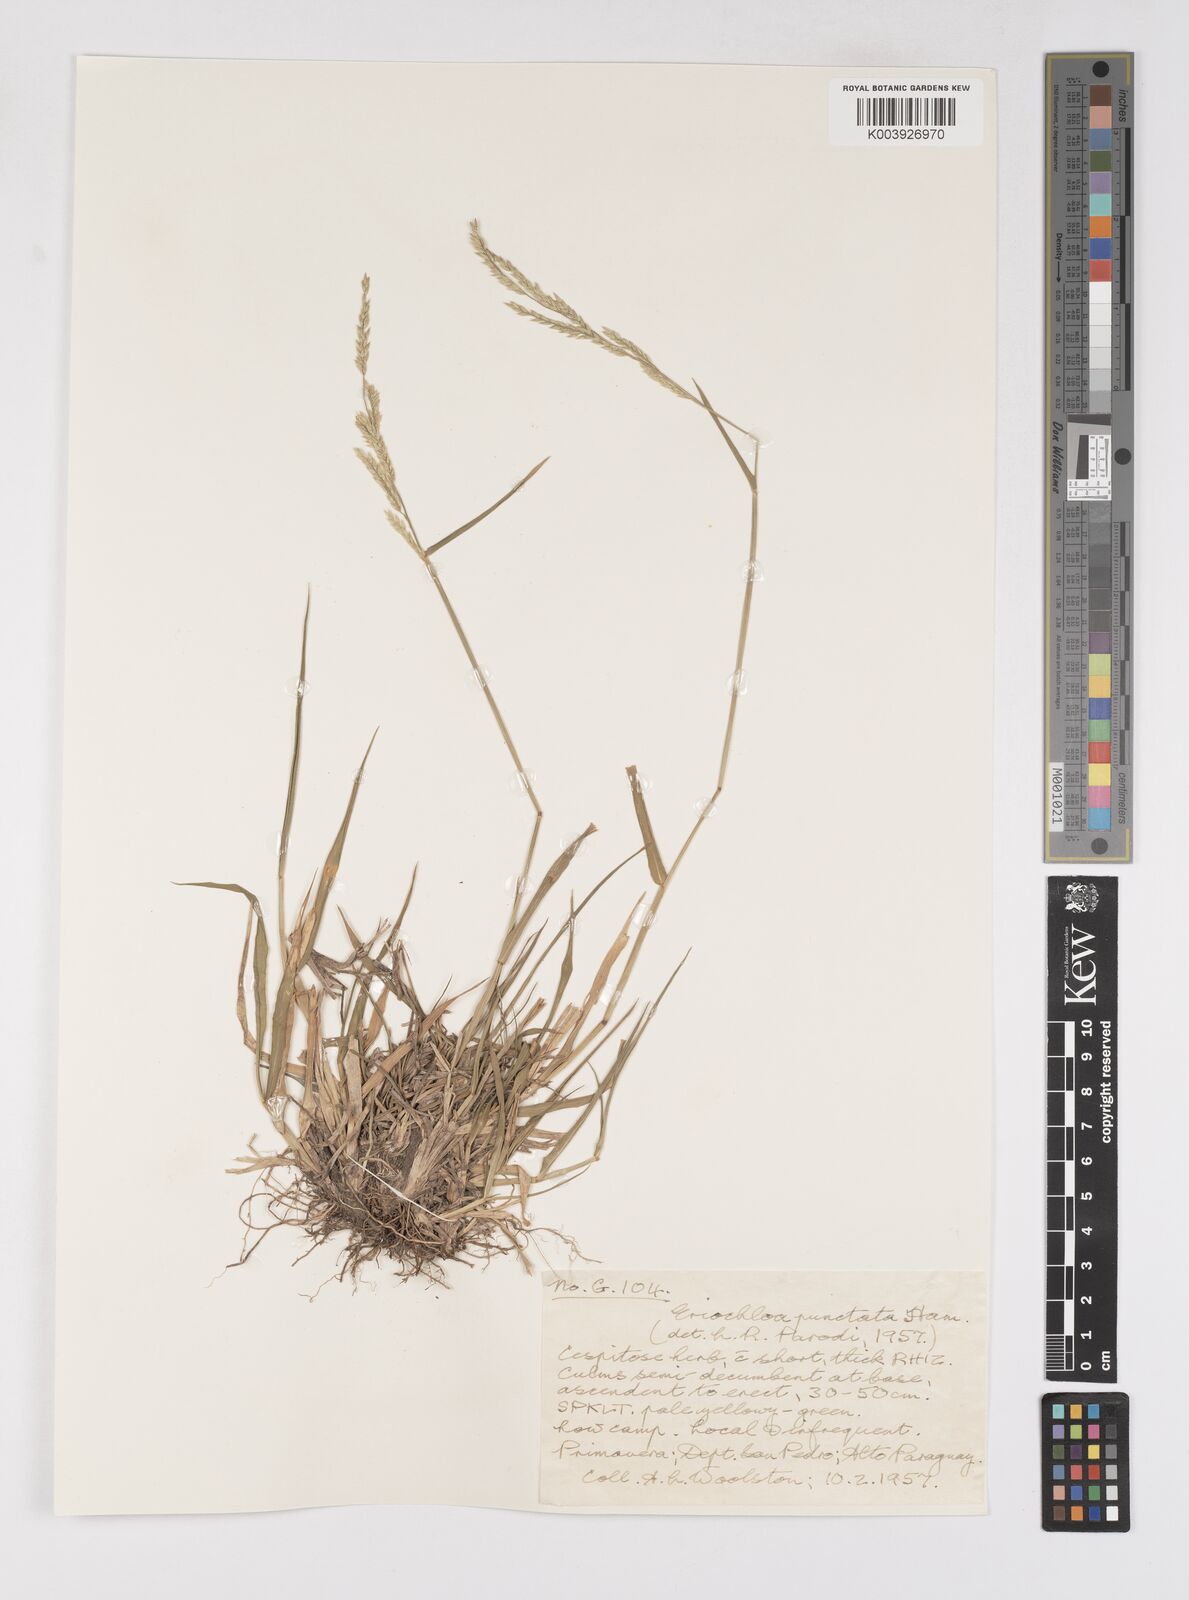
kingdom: Plantae
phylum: Tracheophyta
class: Liliopsida
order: Poales
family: Poaceae
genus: Eriochloa
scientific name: Eriochloa punctata
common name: Louisiana cupgrass
